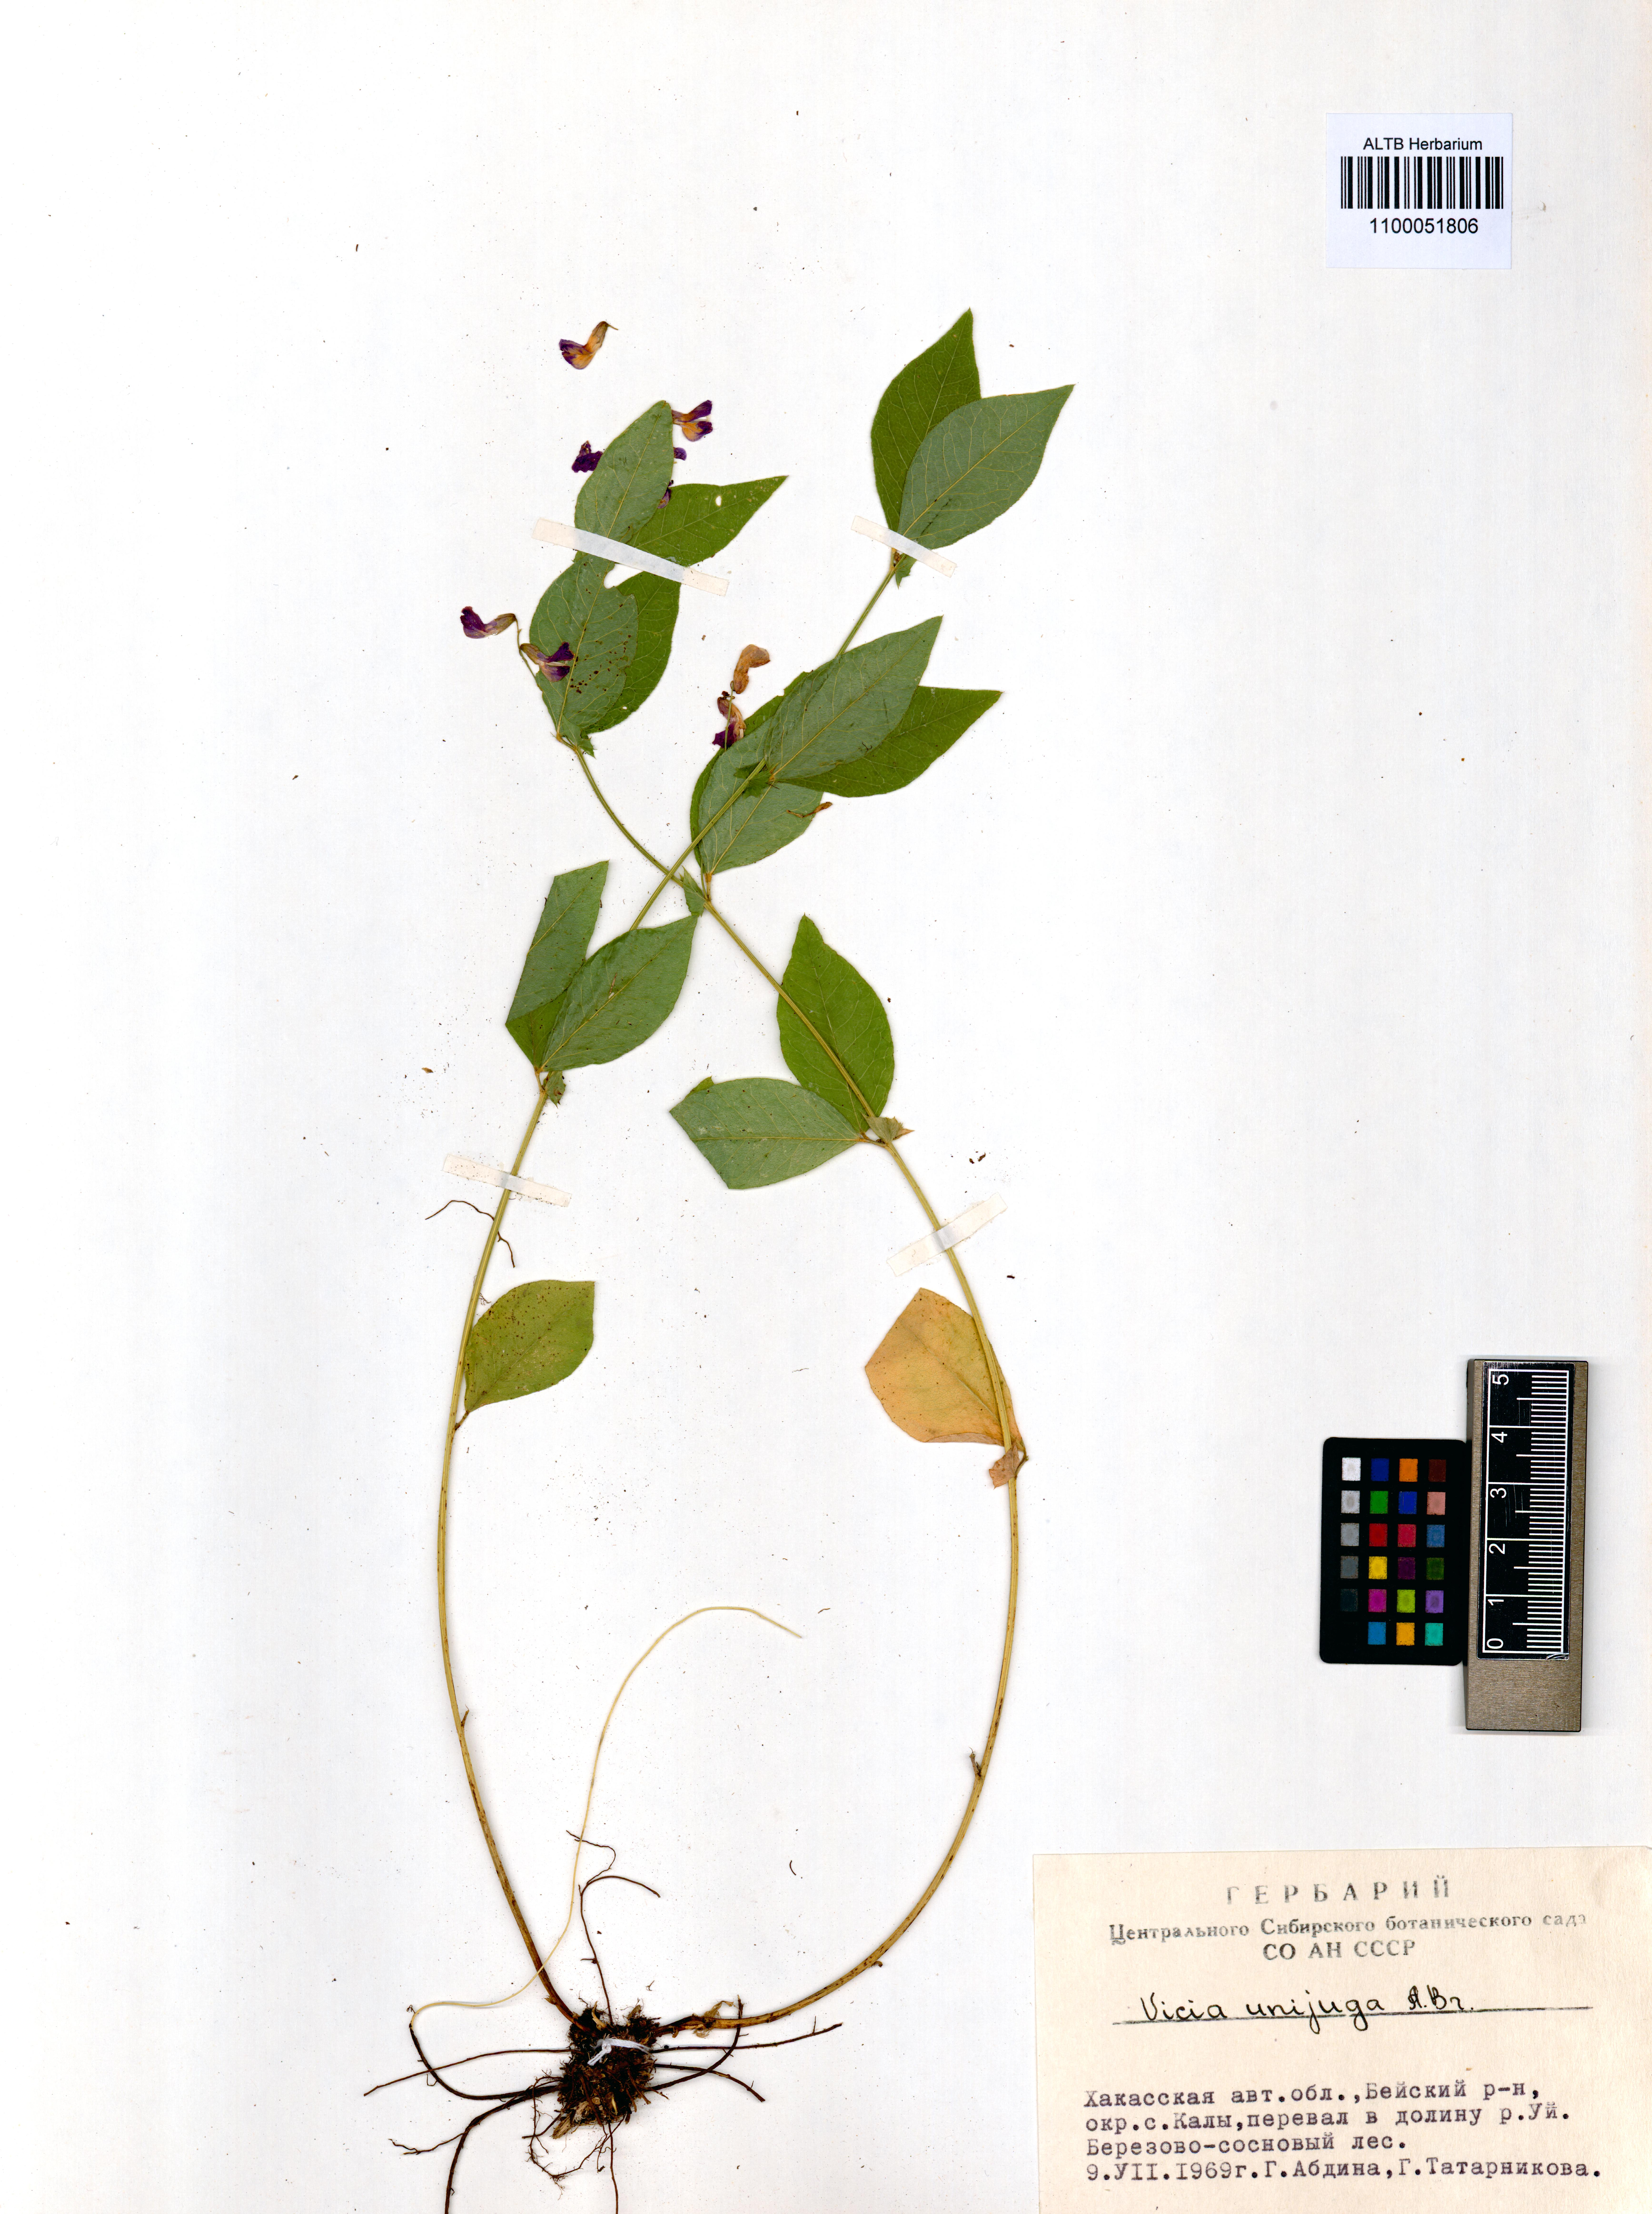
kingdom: Plantae
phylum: Tracheophyta
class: Magnoliopsida
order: Fabales
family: Fabaceae
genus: Vicia
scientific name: Vicia unijuga
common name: Two-leaf vetch
